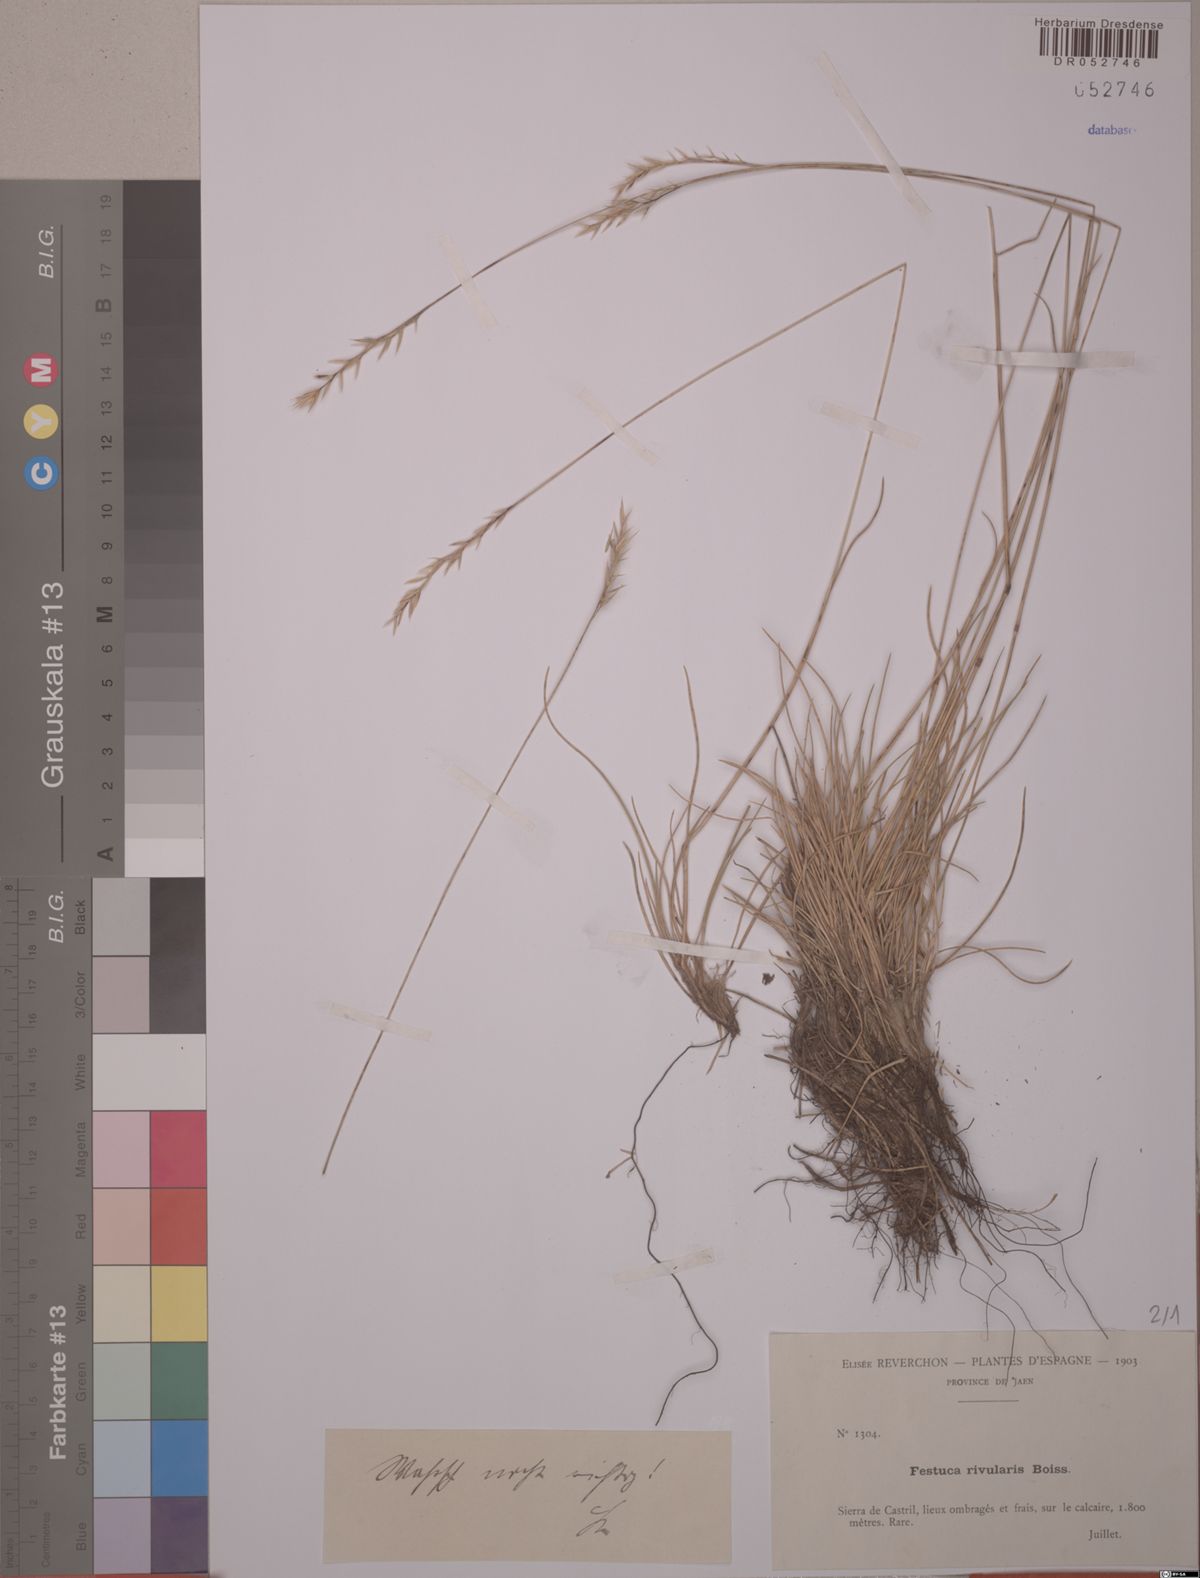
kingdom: Plantae
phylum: Tracheophyta
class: Liliopsida
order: Poales
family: Poaceae
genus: Festuca
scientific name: Festuca rivularis
